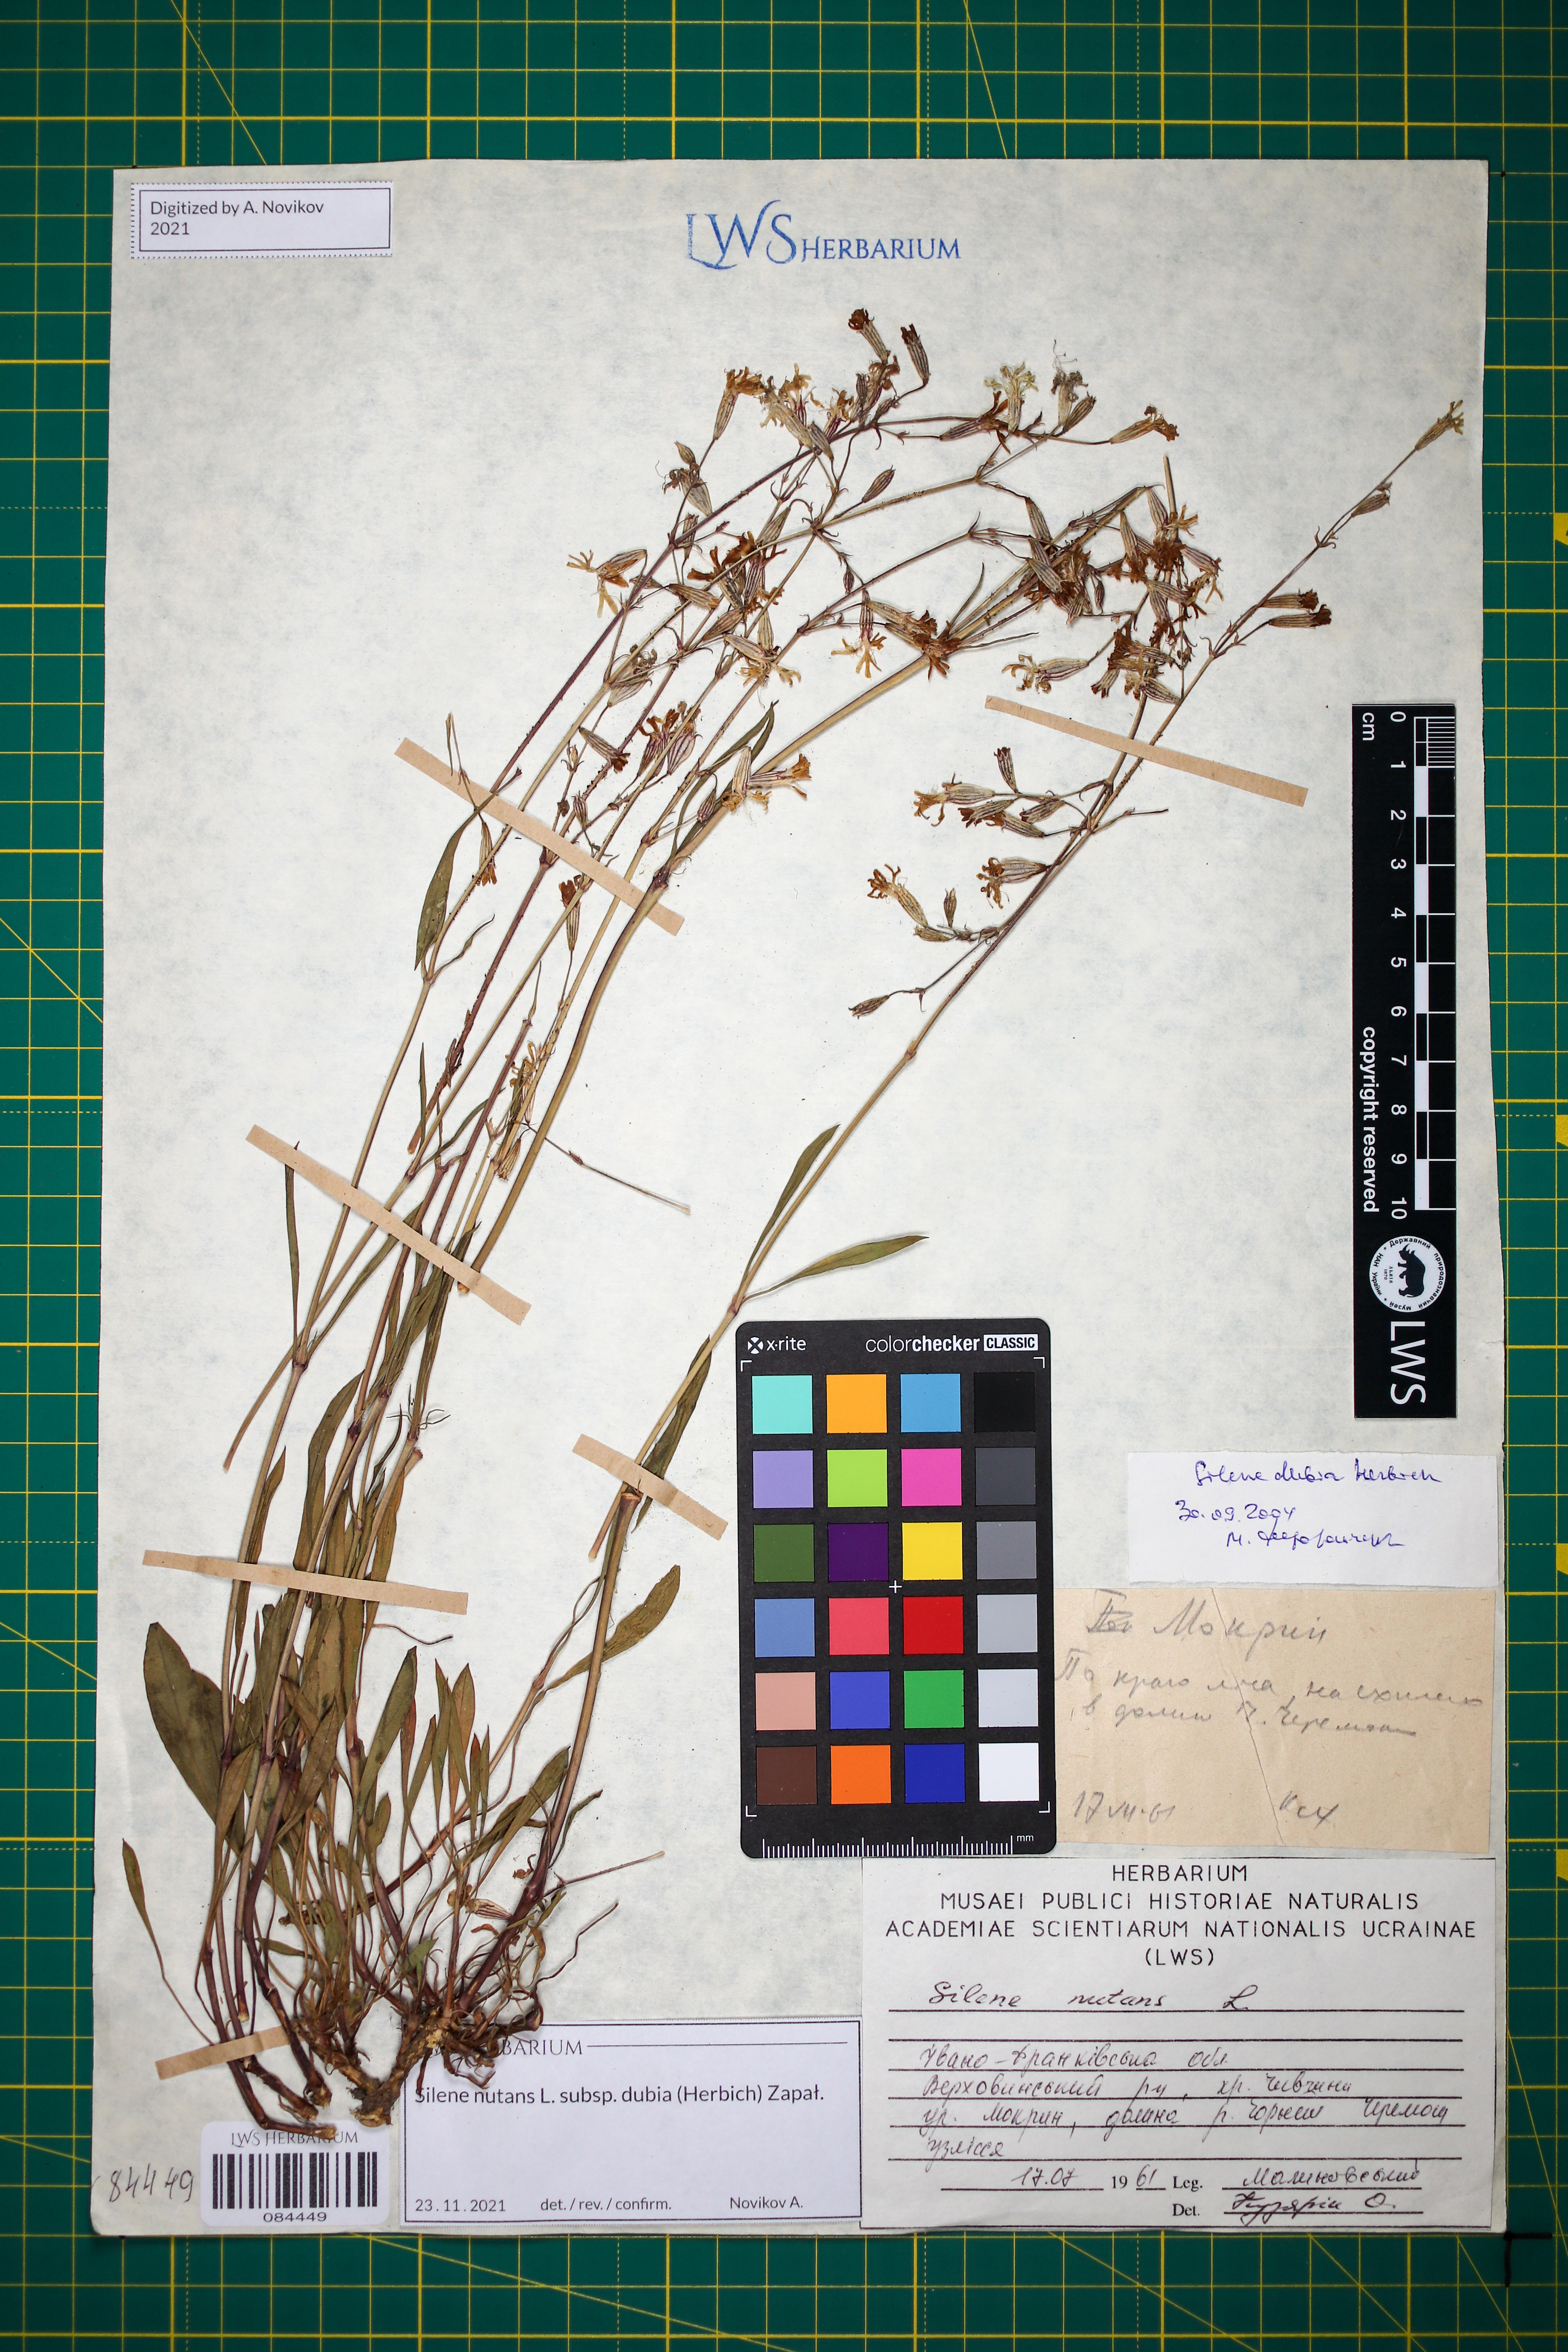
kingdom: Plantae
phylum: Tracheophyta
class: Magnoliopsida
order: Caryophyllales
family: Caryophyllaceae
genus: Silene
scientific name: Silene nutans
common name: Nottingham catchfly
